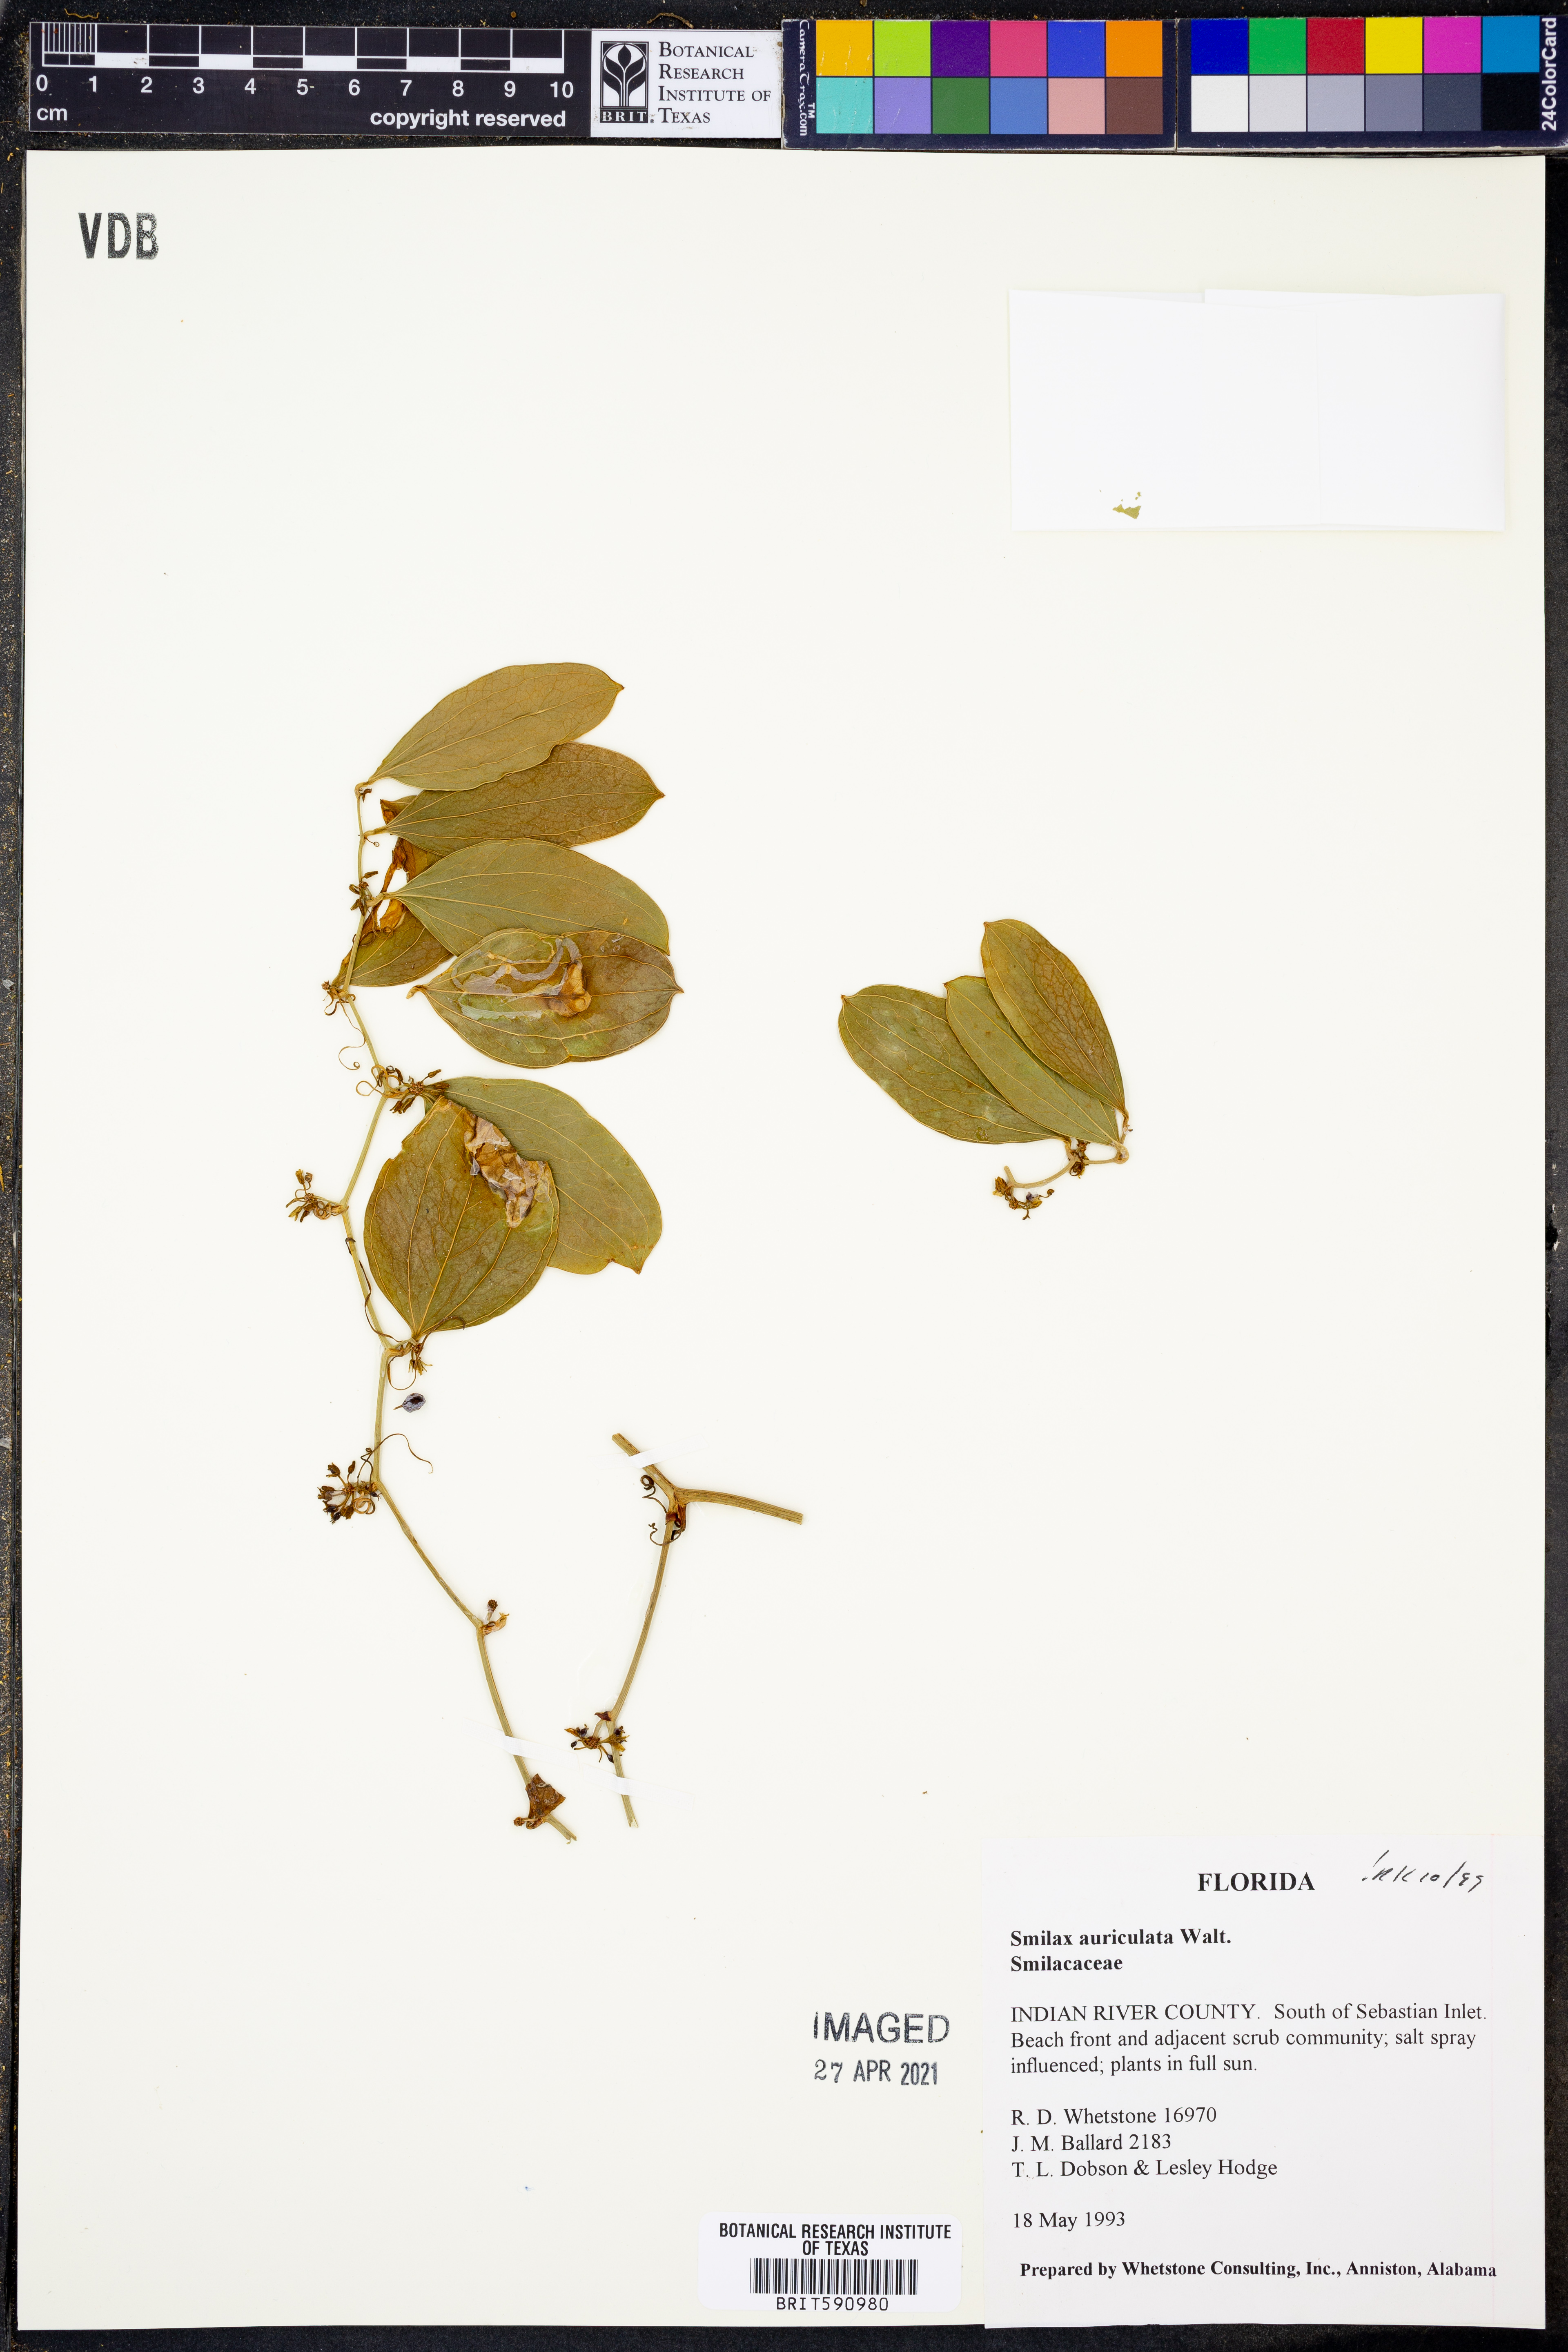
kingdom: Plantae
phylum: Tracheophyta
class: Liliopsida
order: Liliales
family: Smilacaceae
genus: Smilax
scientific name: Smilax auriculata
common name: Wild bamboo
